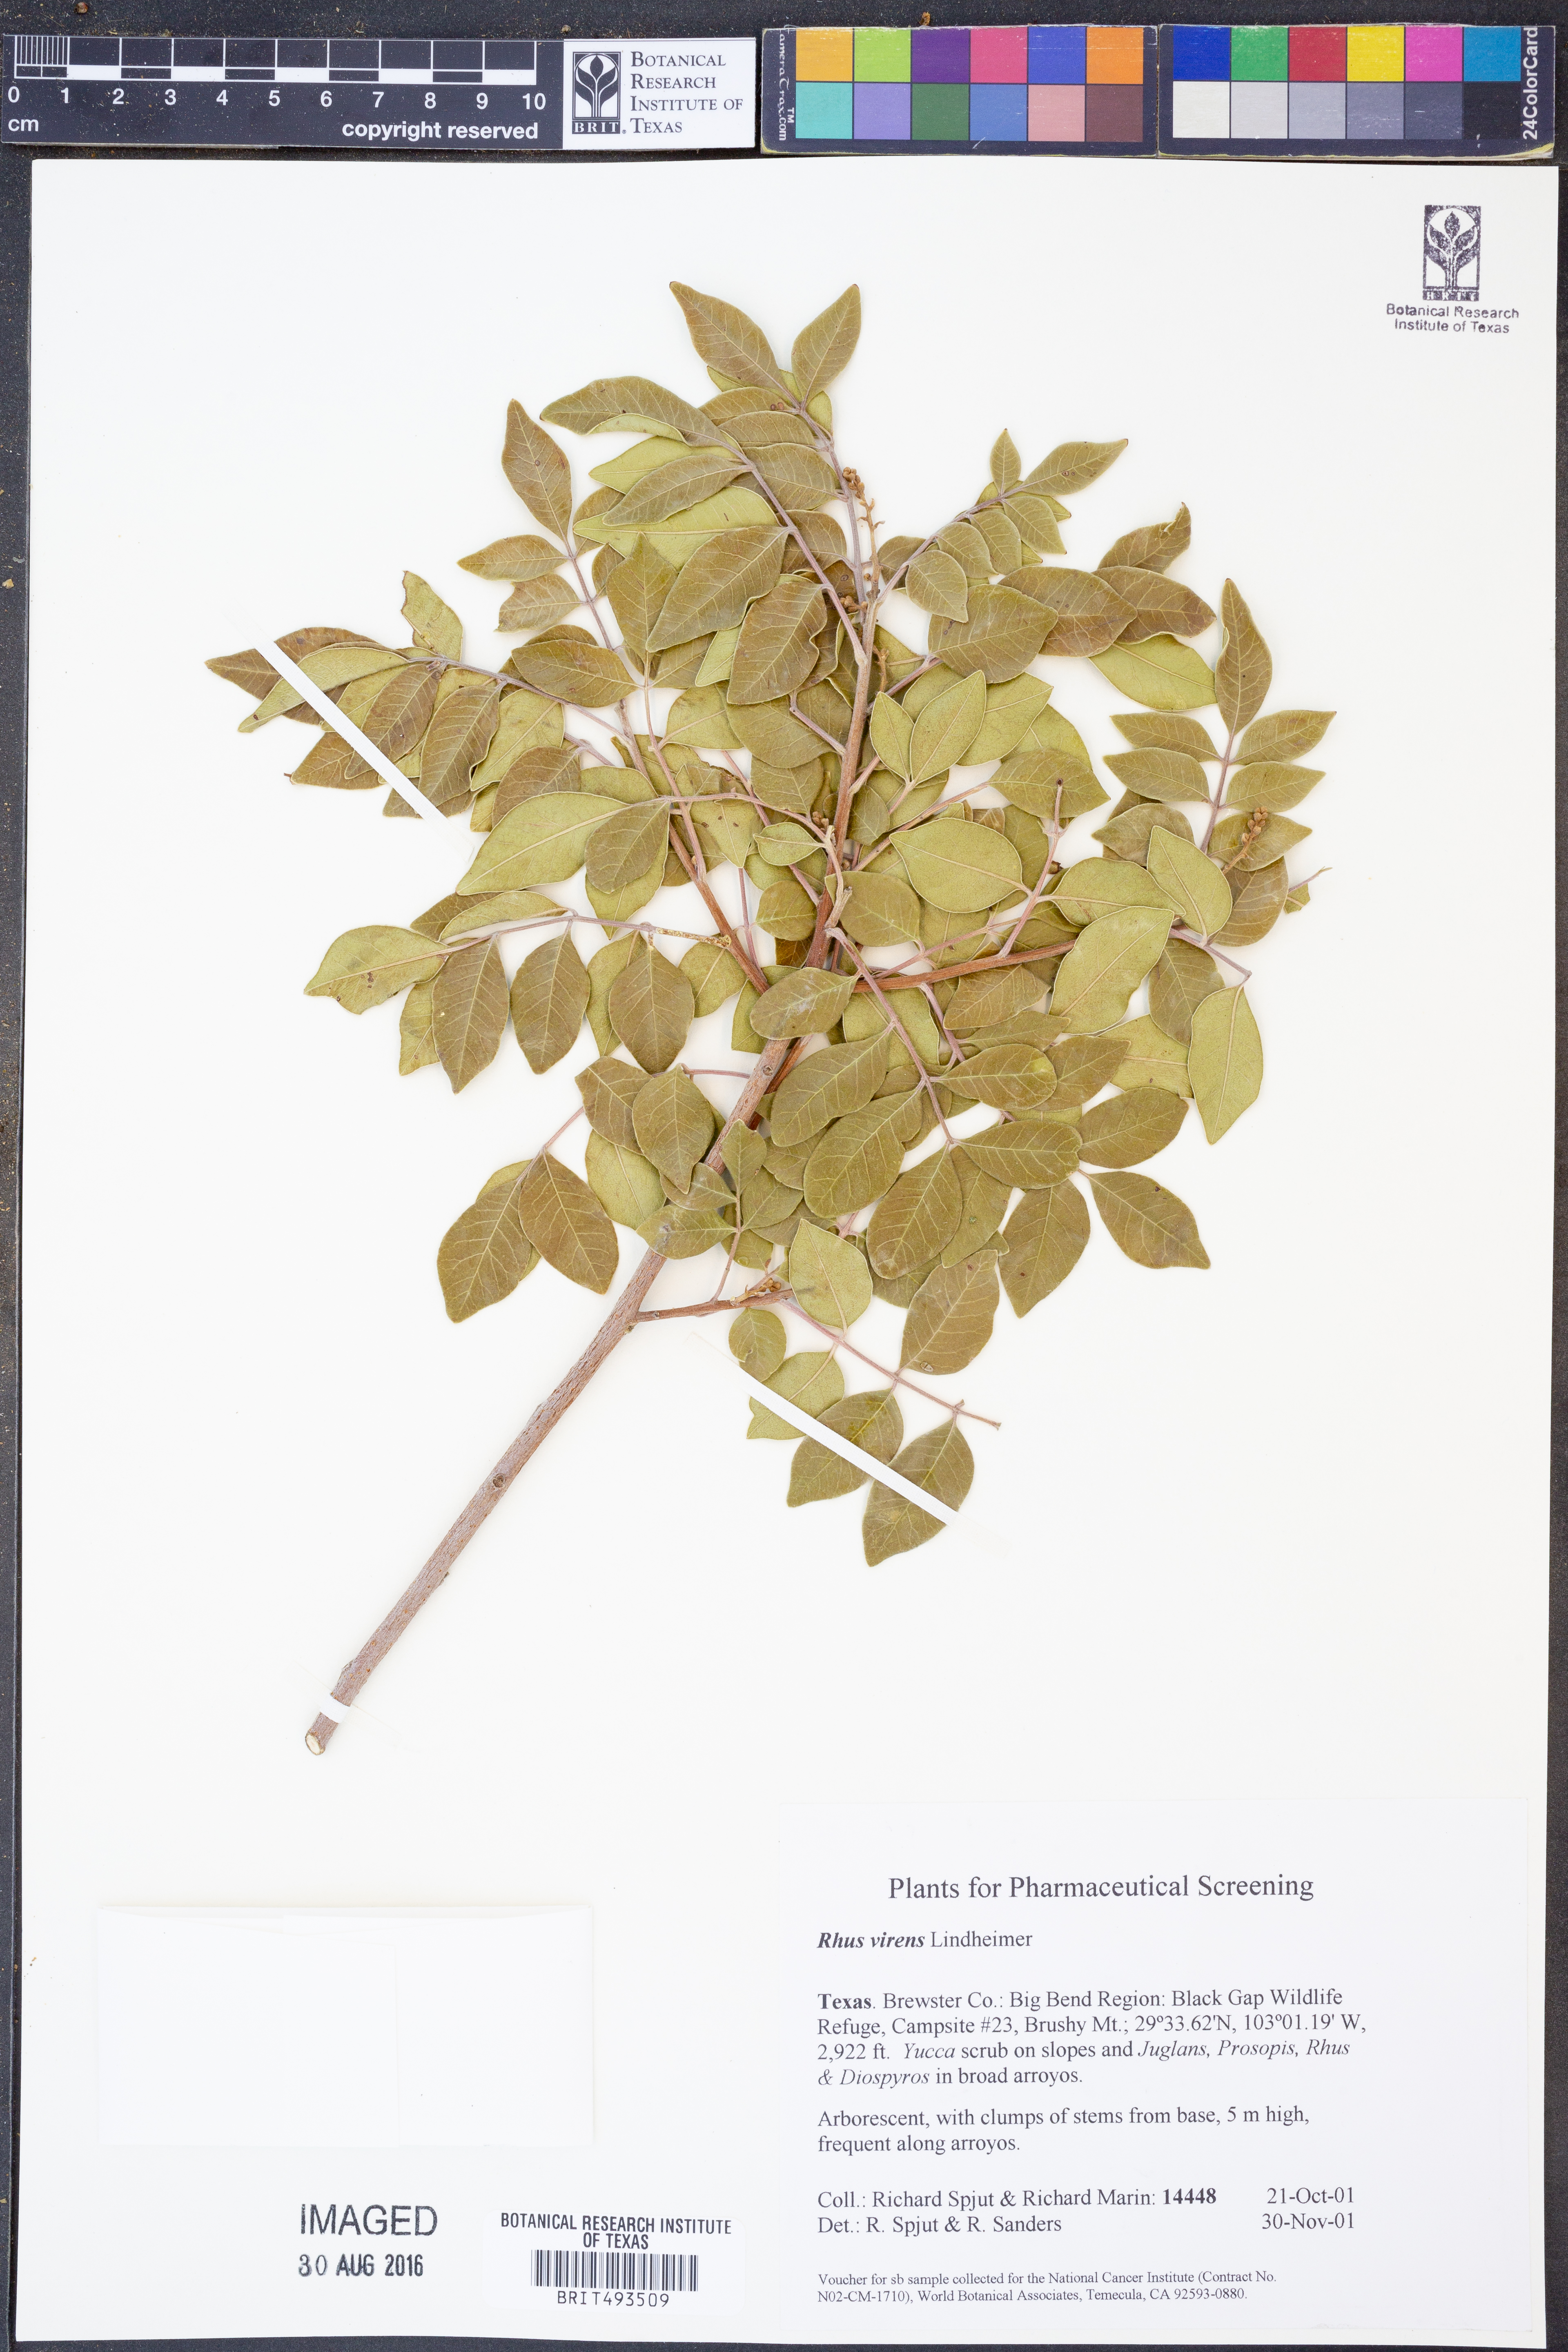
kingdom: Plantae
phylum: Tracheophyta
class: Magnoliopsida
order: Sapindales
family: Anacardiaceae
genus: Rhus
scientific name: Rhus virens
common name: Evergreen sumac
